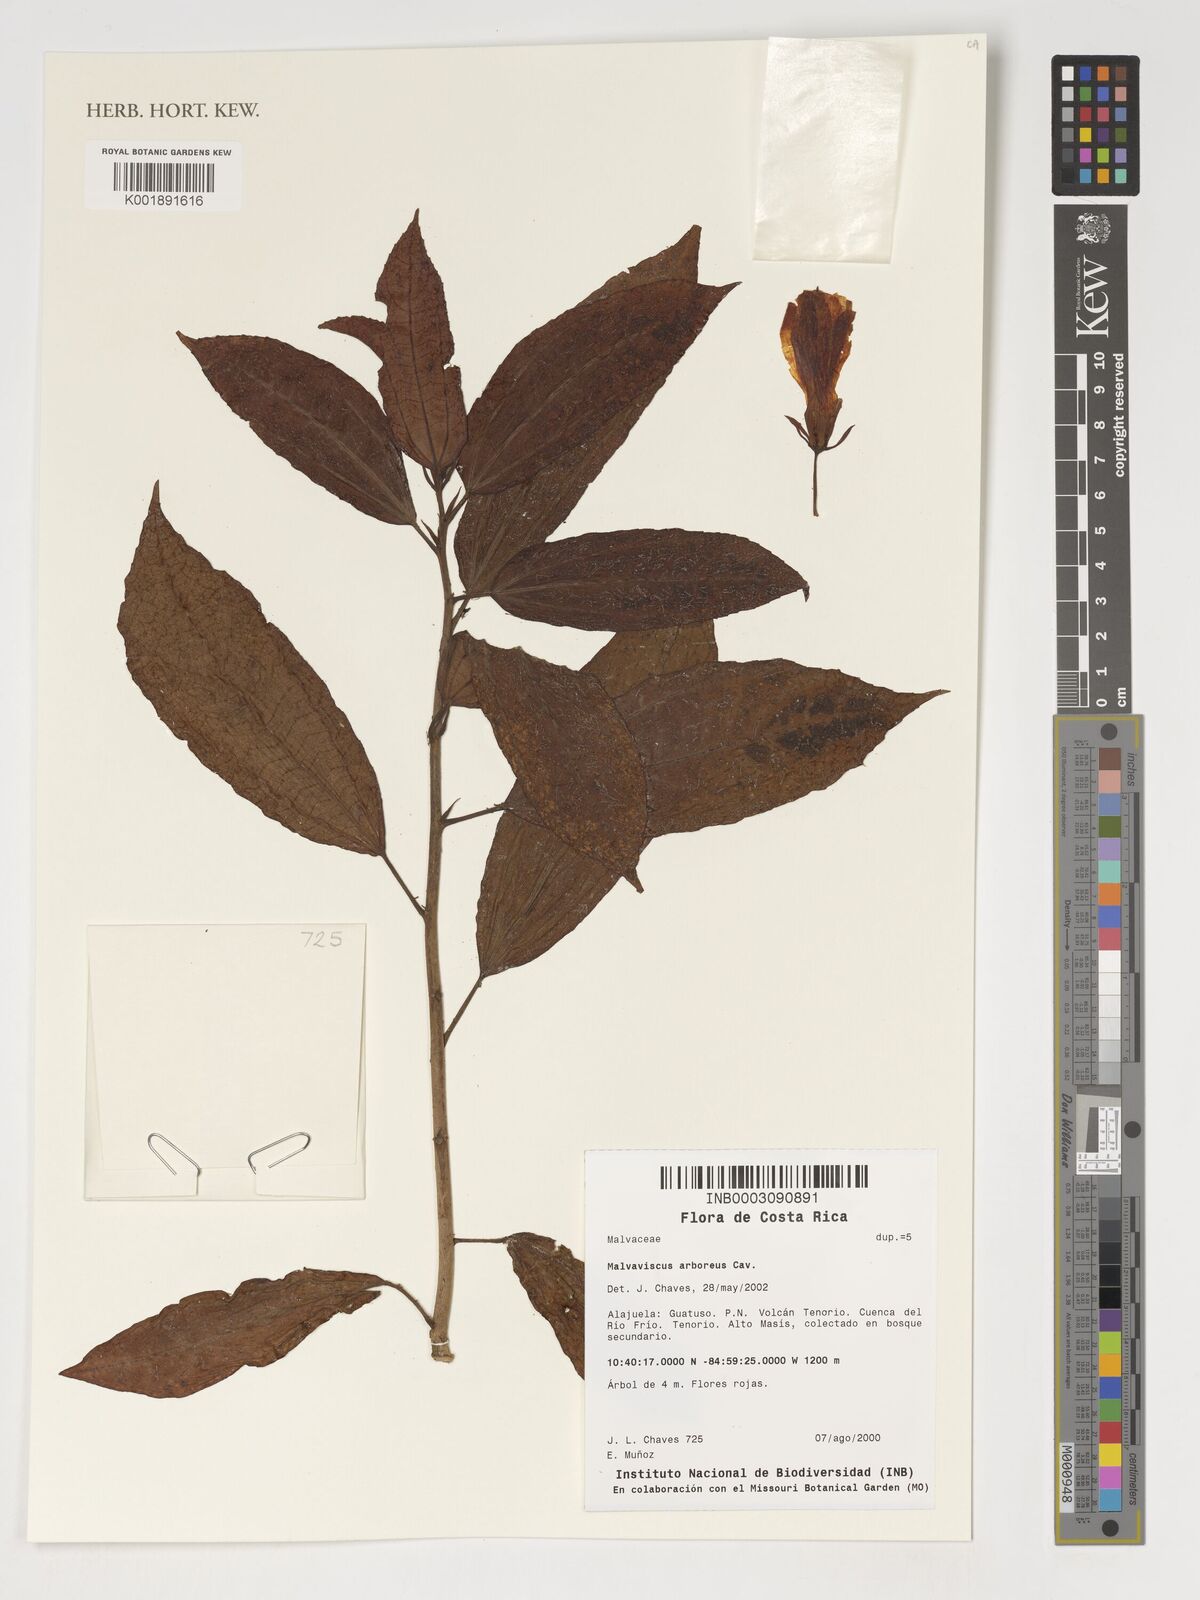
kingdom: Plantae
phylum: Tracheophyta
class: Magnoliopsida
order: Malvales
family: Malvaceae
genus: Malvaviscus
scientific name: Malvaviscus arboreus
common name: Wax mallow
